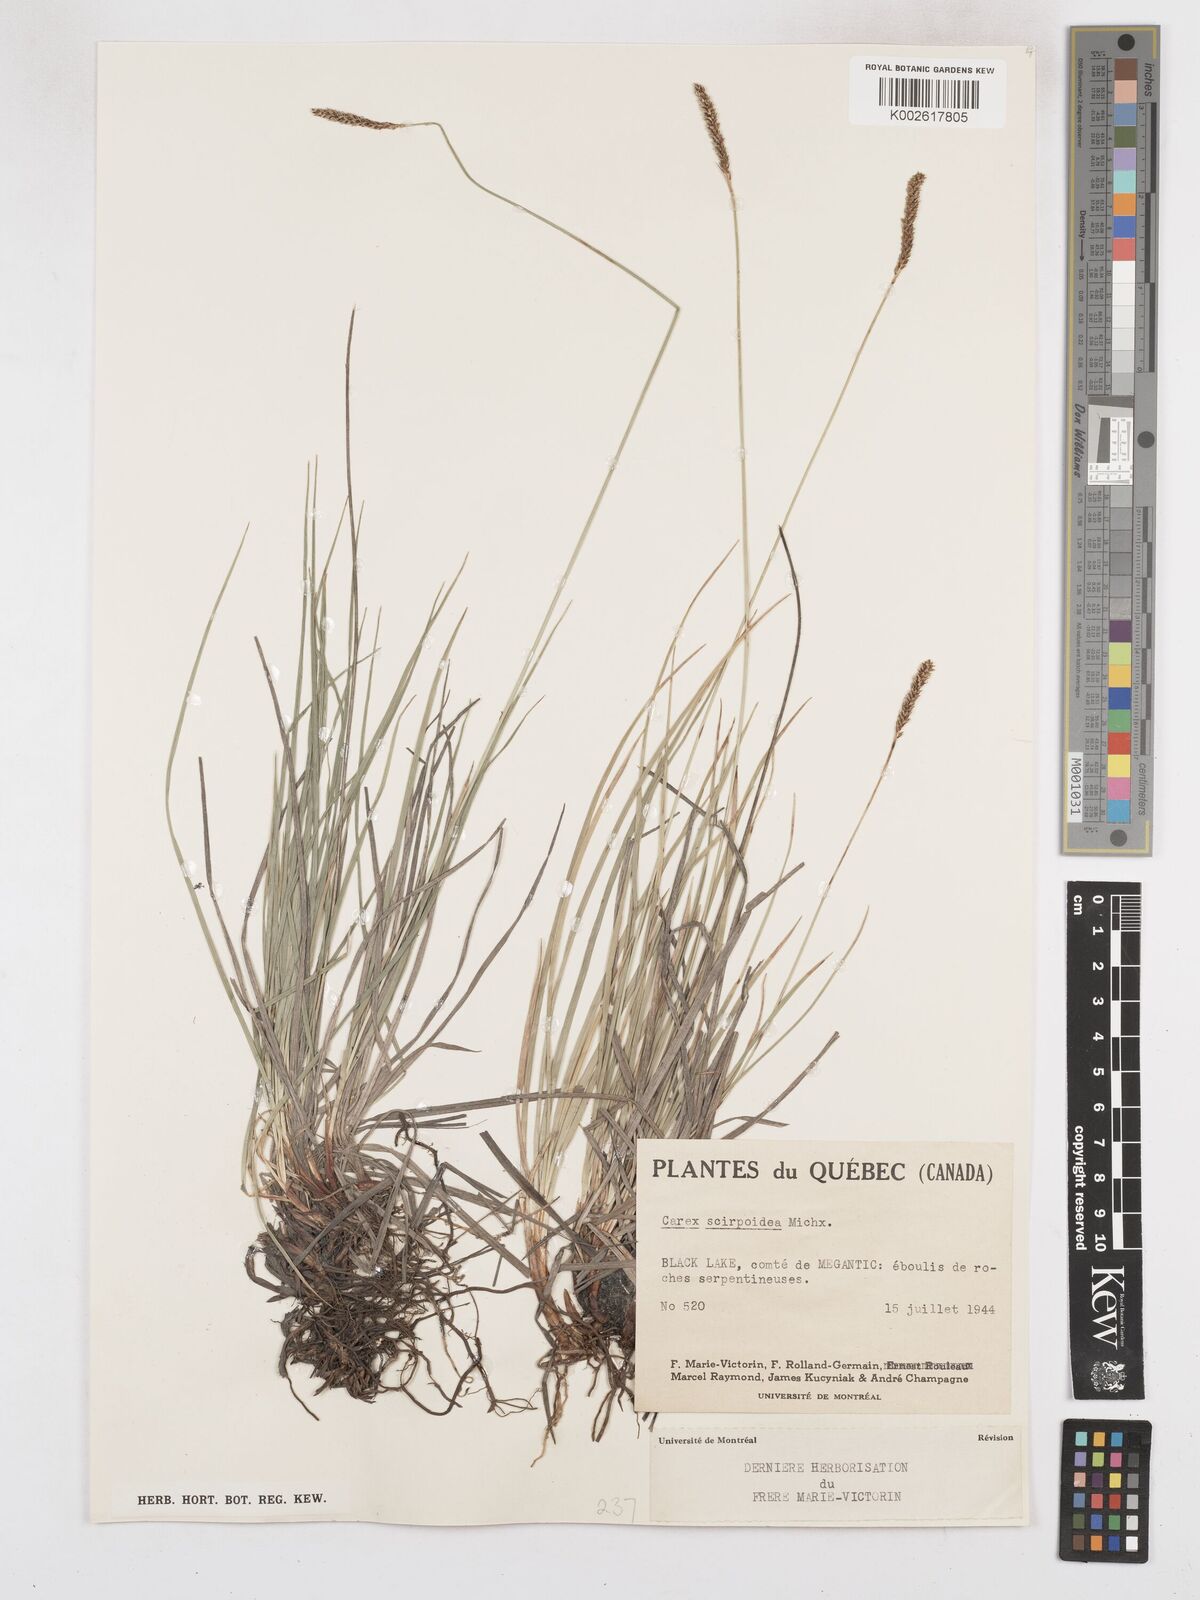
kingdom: Plantae
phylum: Tracheophyta
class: Liliopsida
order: Poales
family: Cyperaceae
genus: Carex
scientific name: Carex scirpoidea
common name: Canada single-spike sedge
